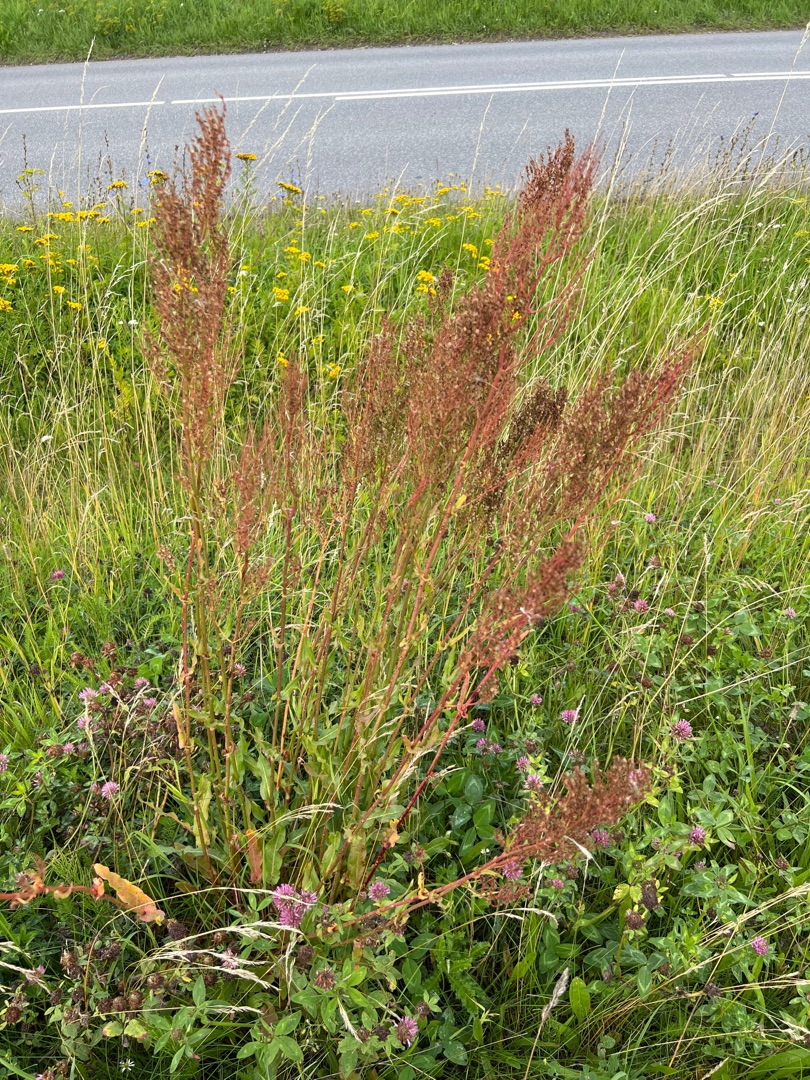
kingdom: Plantae
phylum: Tracheophyta
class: Magnoliopsida
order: Caryophyllales
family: Polygonaceae
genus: Rumex
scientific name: Rumex thyrsiflorus
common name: Dusk-syre
